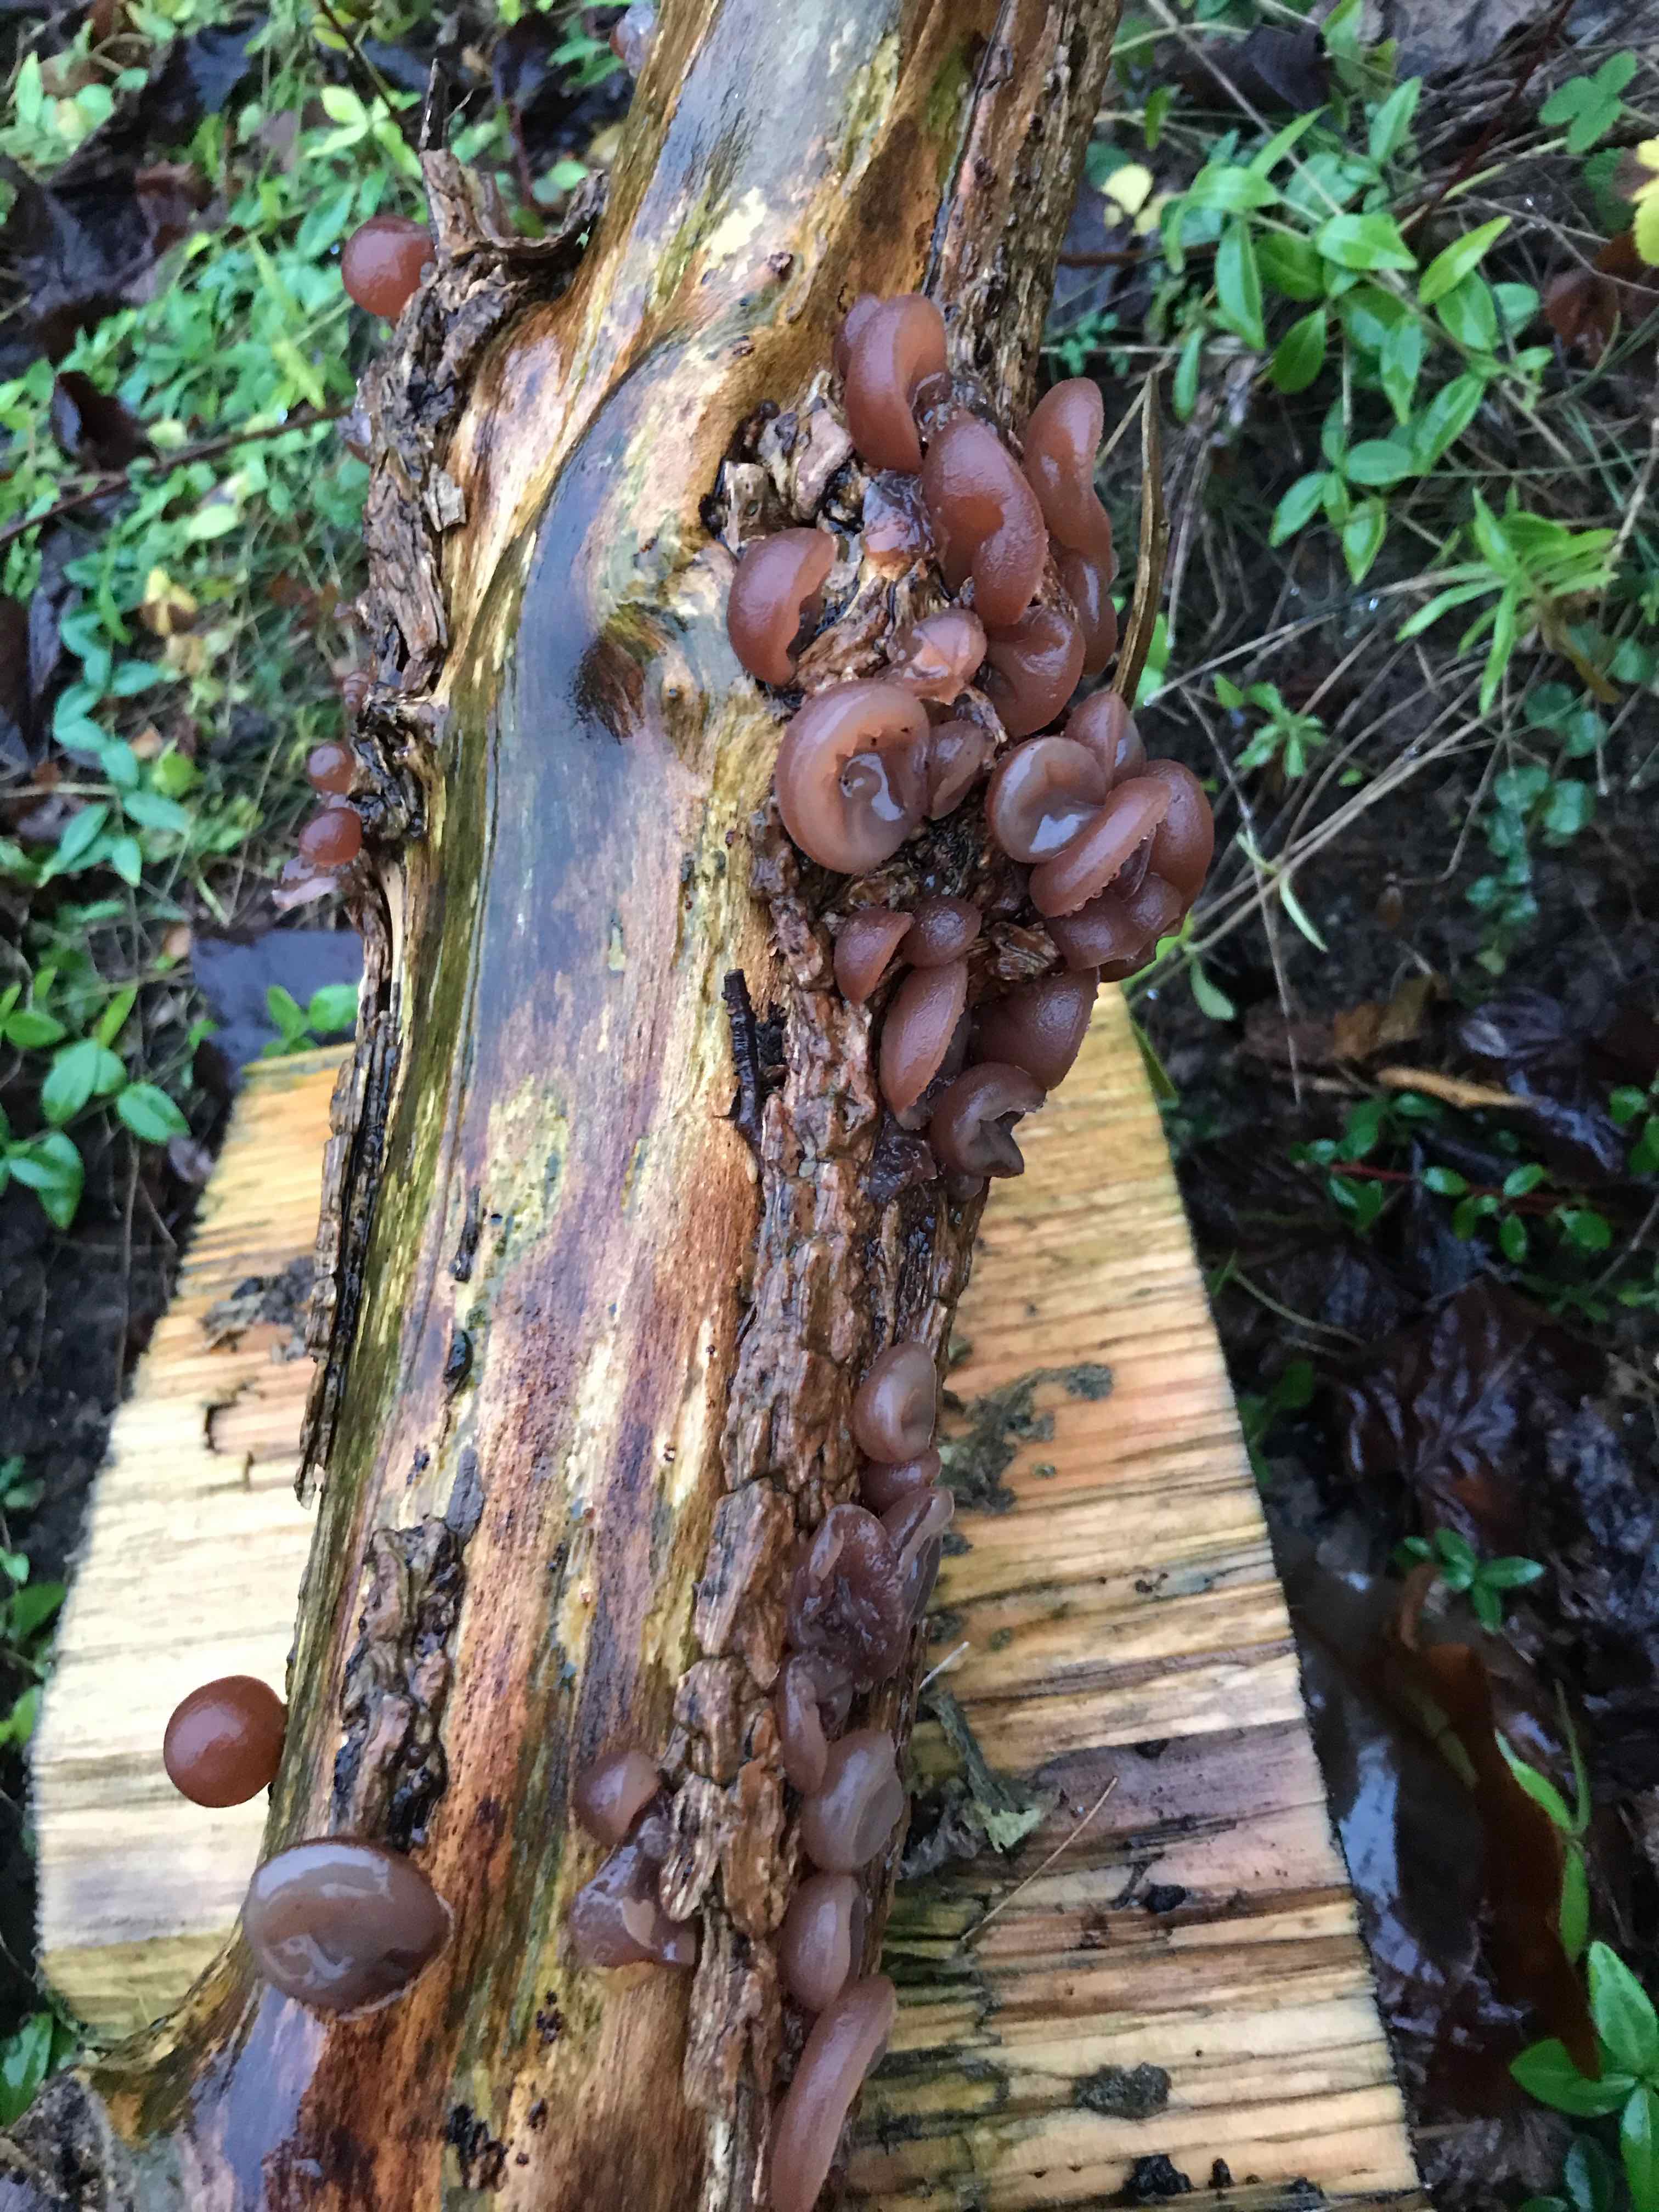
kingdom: Fungi
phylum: Basidiomycota
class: Agaricomycetes
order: Auriculariales
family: Auriculariaceae
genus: Auricularia
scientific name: Auricularia auricula-judae
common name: almindelig judasøre
